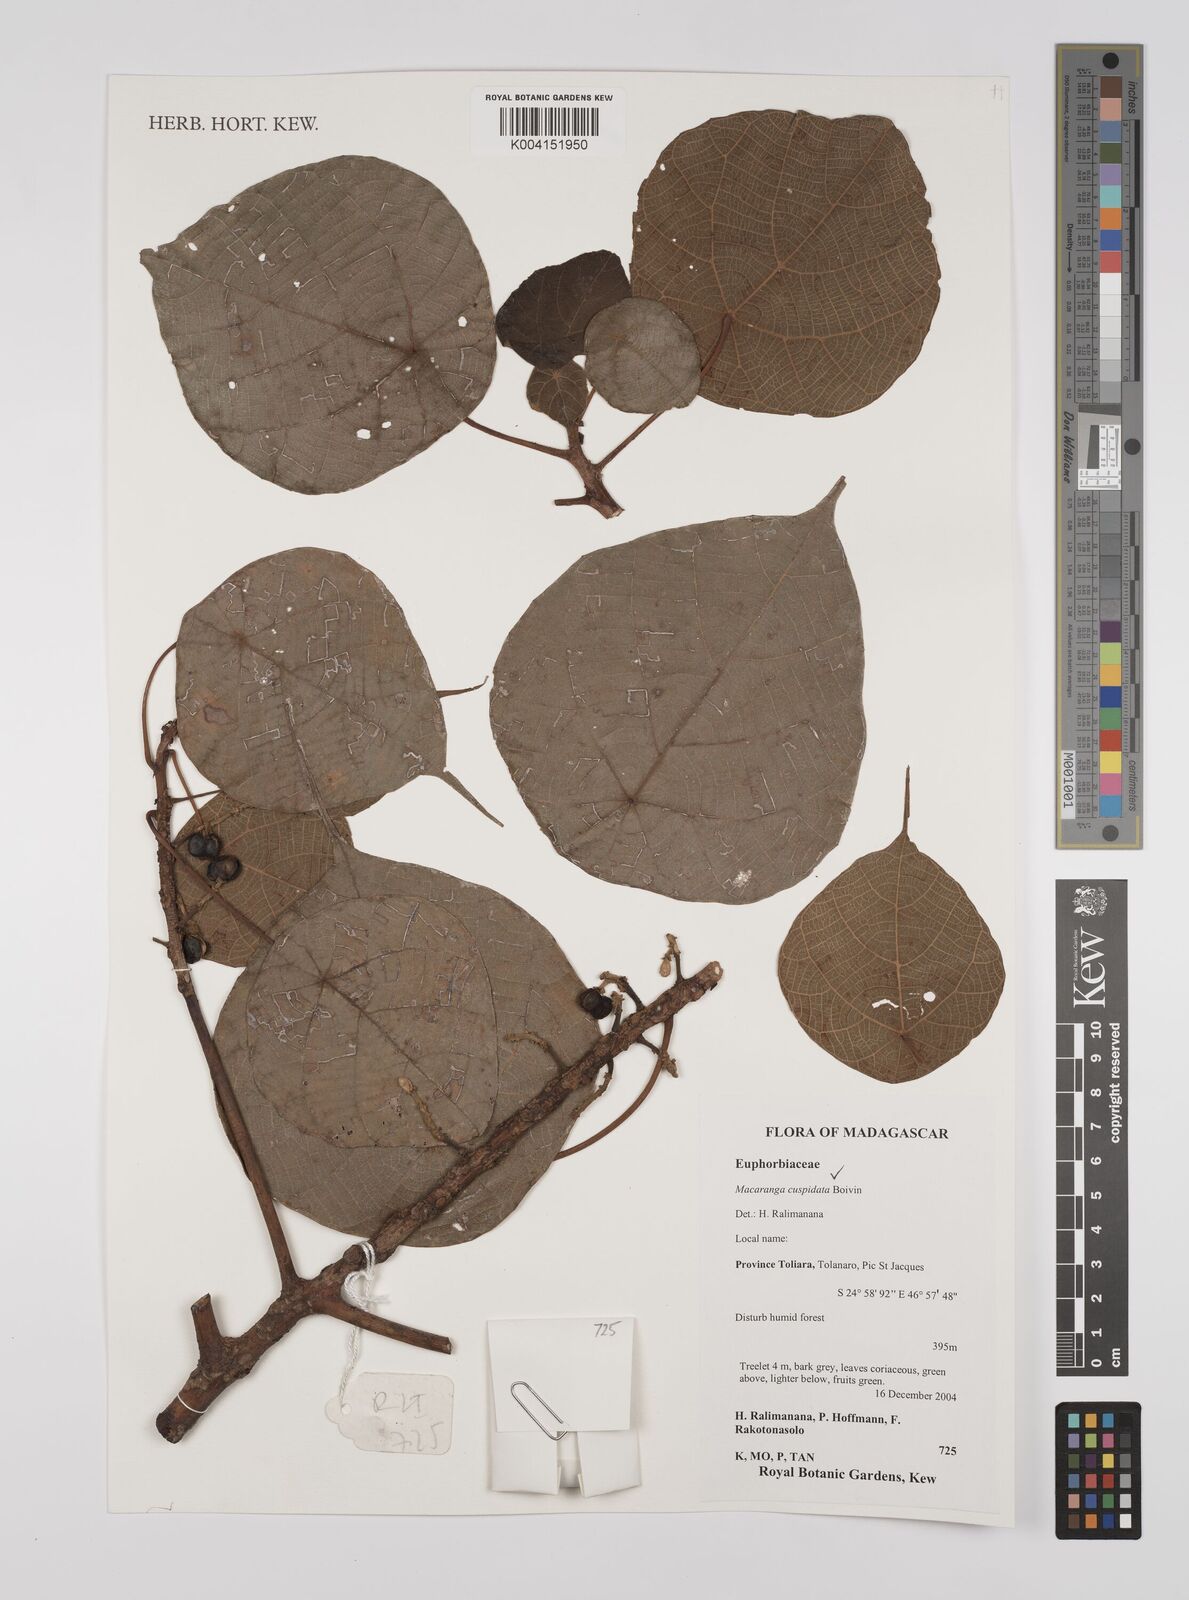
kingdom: Plantae
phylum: Tracheophyta
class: Magnoliopsida
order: Malpighiales
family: Euphorbiaceae
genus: Macaranga
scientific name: Macaranga cuspidata
